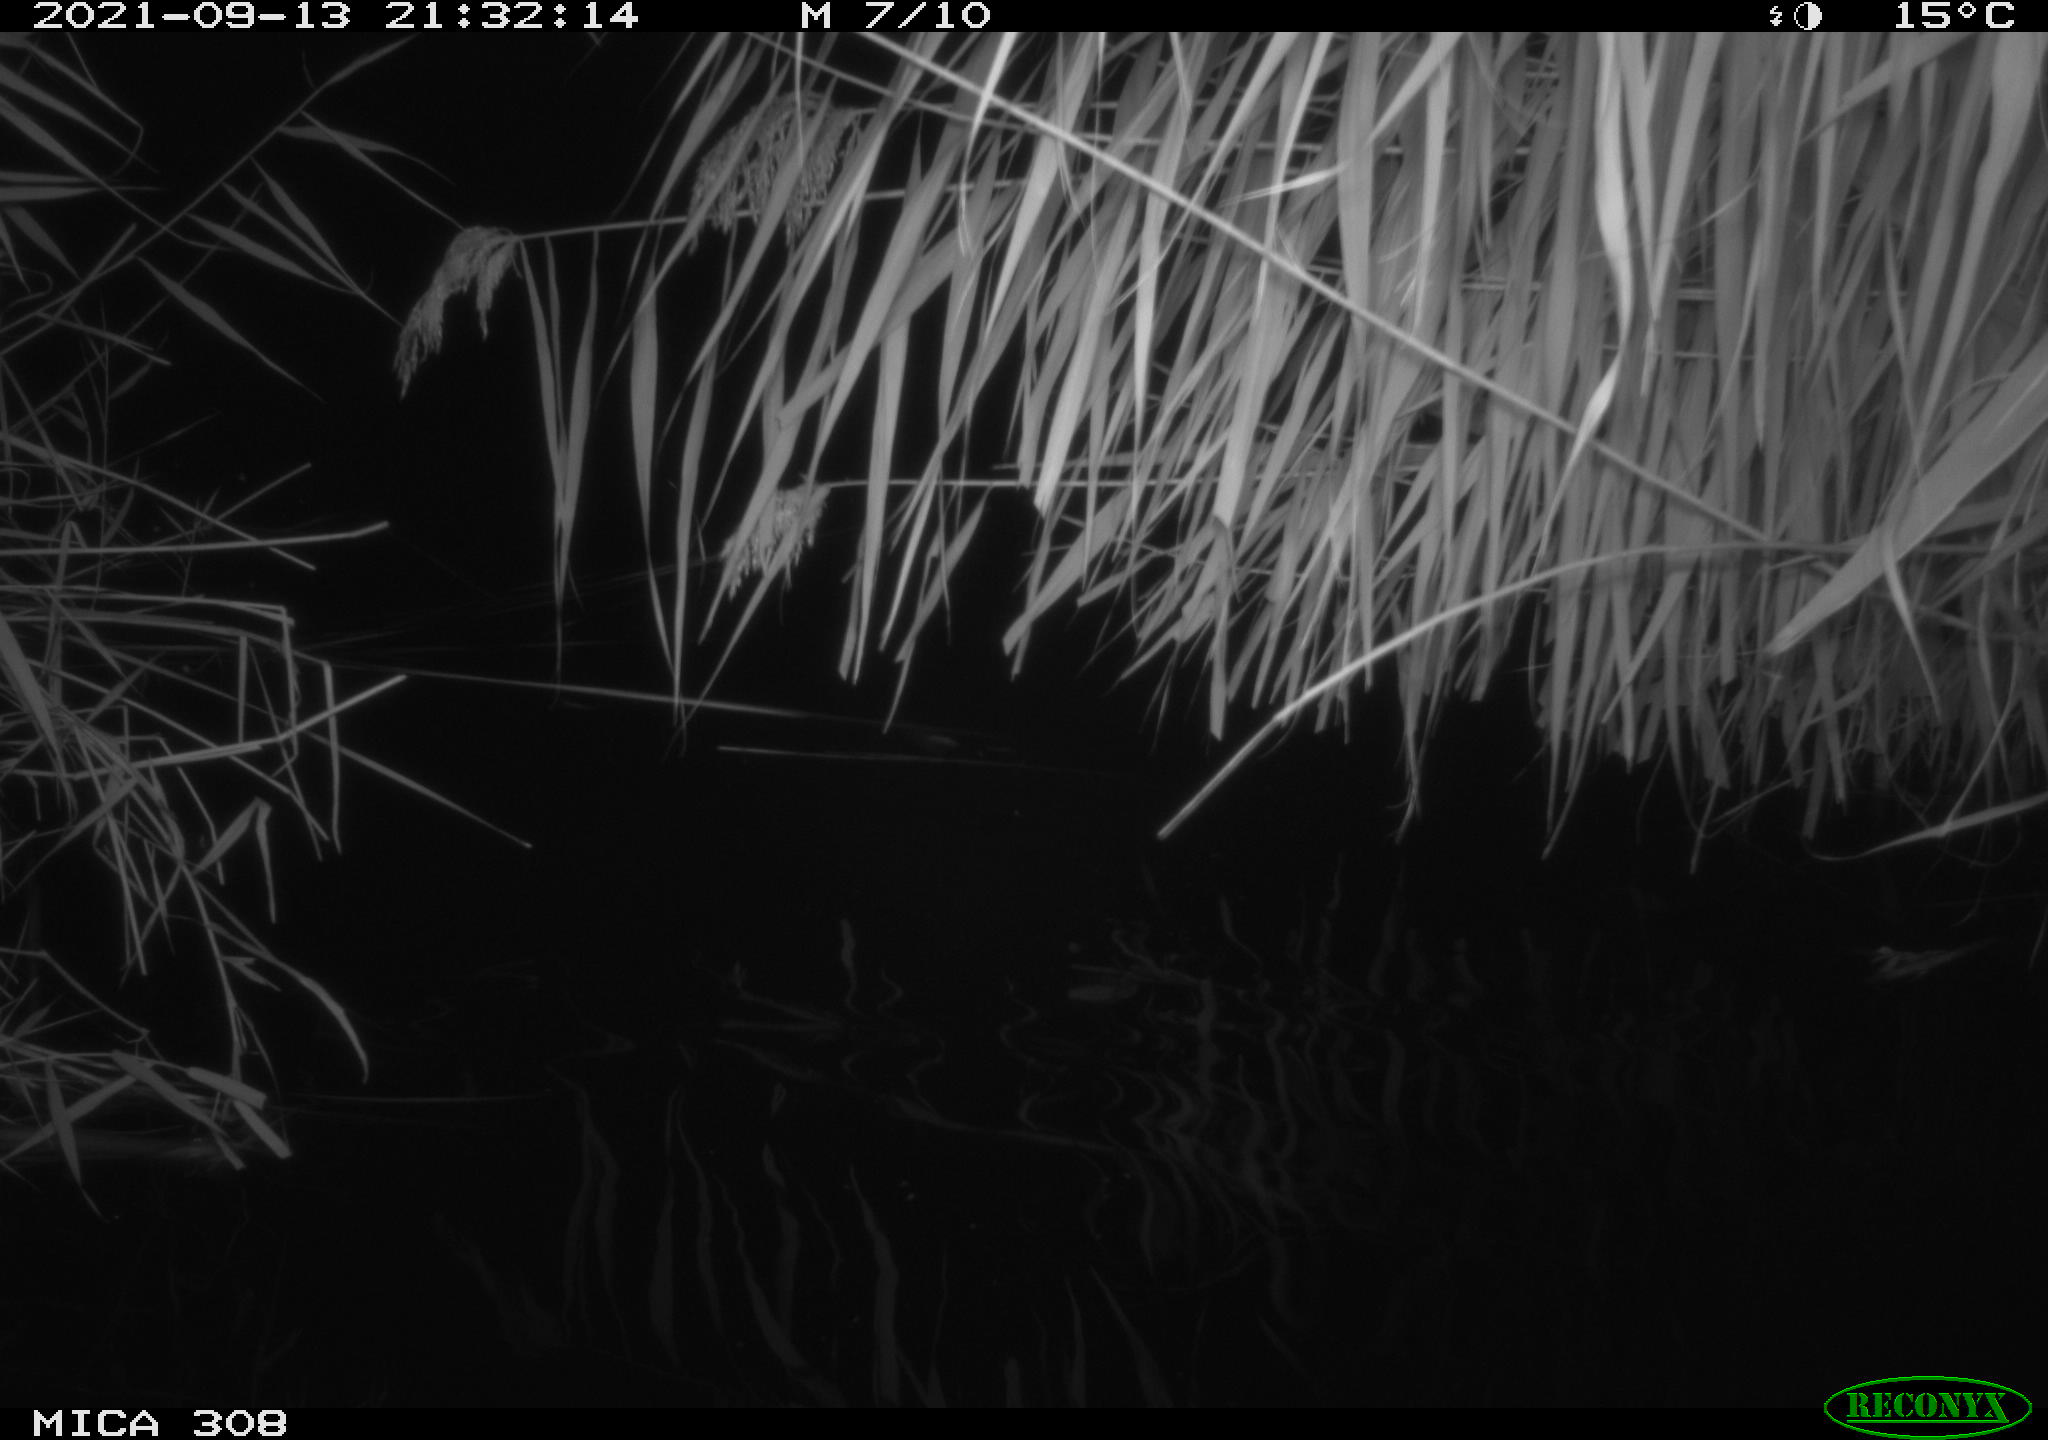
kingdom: Animalia
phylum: Chordata
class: Mammalia
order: Rodentia
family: Muridae
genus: Rattus
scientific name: Rattus norvegicus
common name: Brown rat
